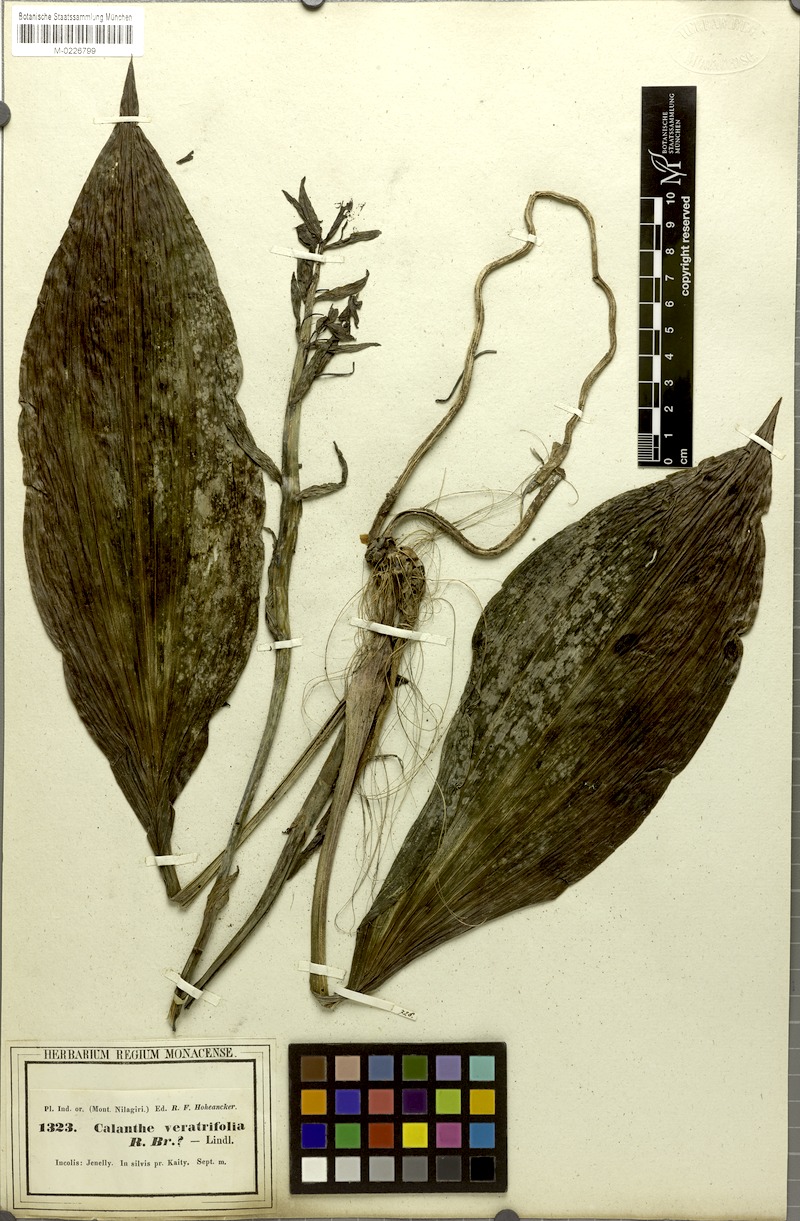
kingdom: Plantae
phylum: Tracheophyta
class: Liliopsida
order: Asparagales
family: Orchidaceae
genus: Calanthe
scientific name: Calanthe triplicata
